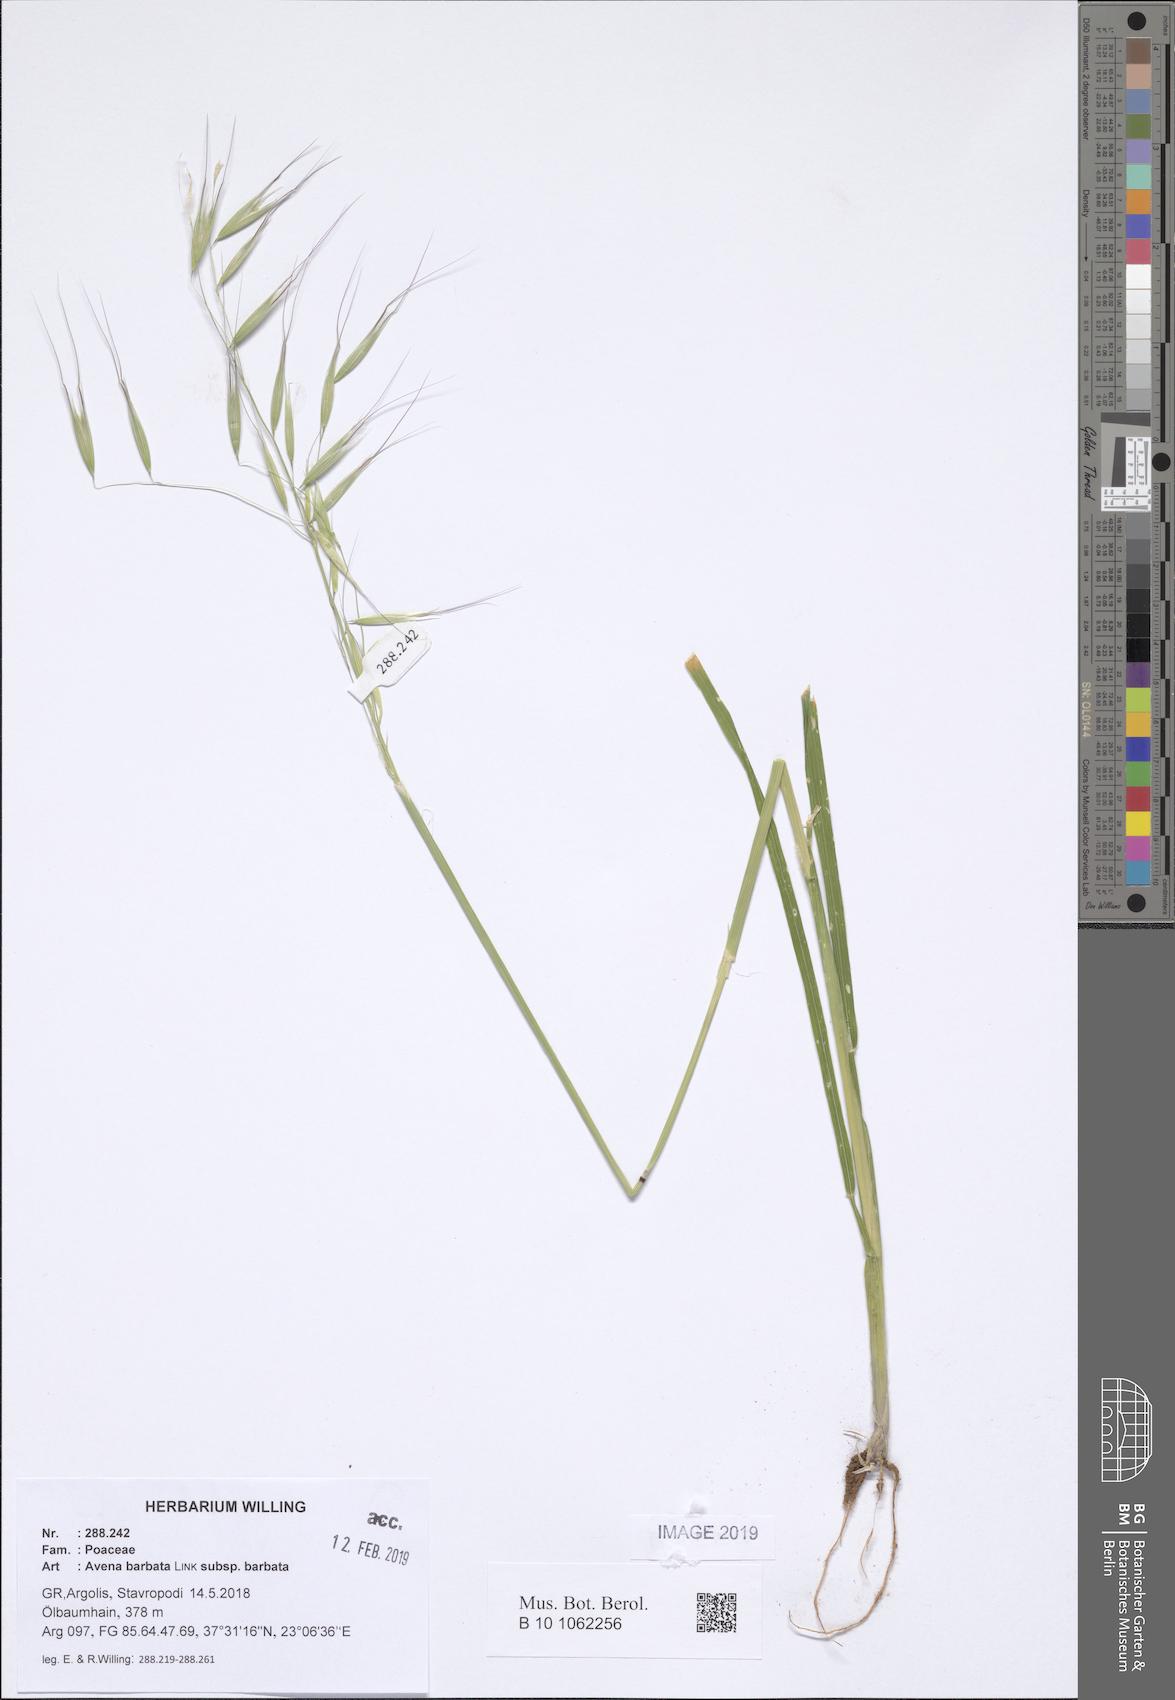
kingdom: Plantae
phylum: Tracheophyta
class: Liliopsida
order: Poales
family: Poaceae
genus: Avena
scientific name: Avena barbata
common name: Slender oat
